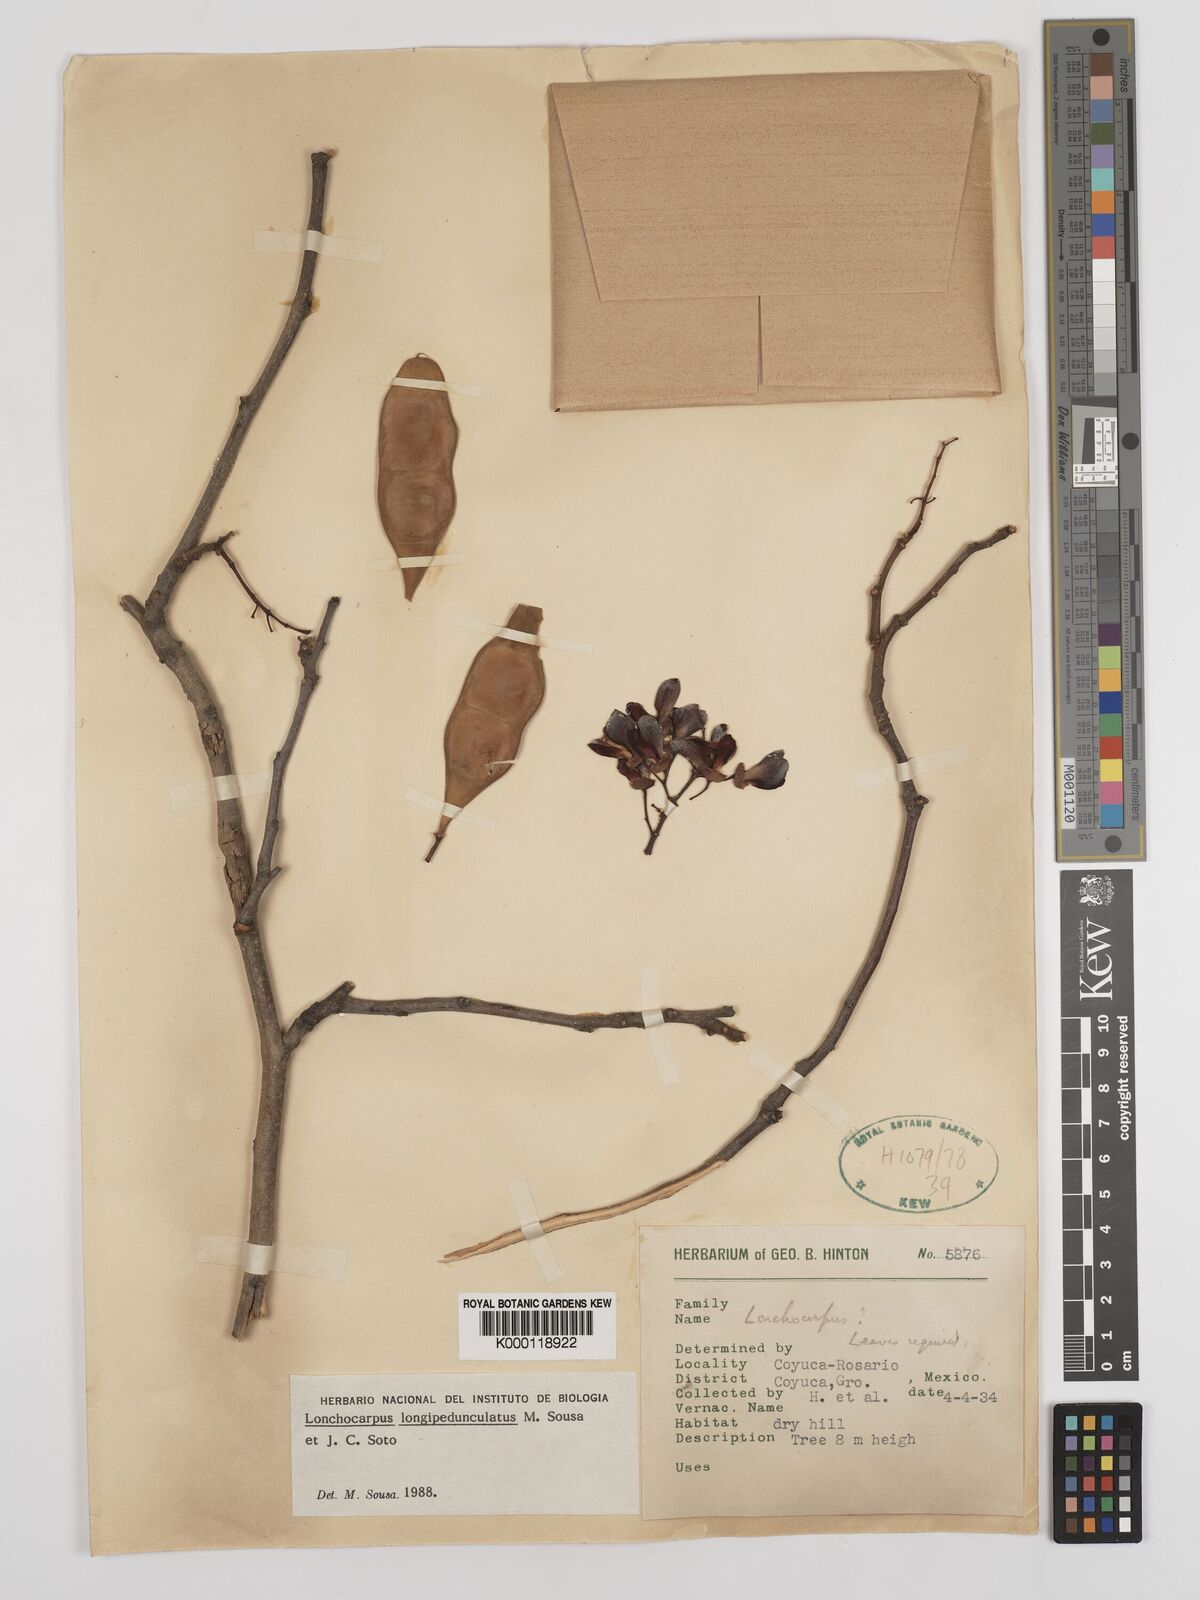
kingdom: Plantae
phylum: Tracheophyta
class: Magnoliopsida
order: Fabales
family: Fabaceae
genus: Lonchocarpus
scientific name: Lonchocarpus longipedunculatus
